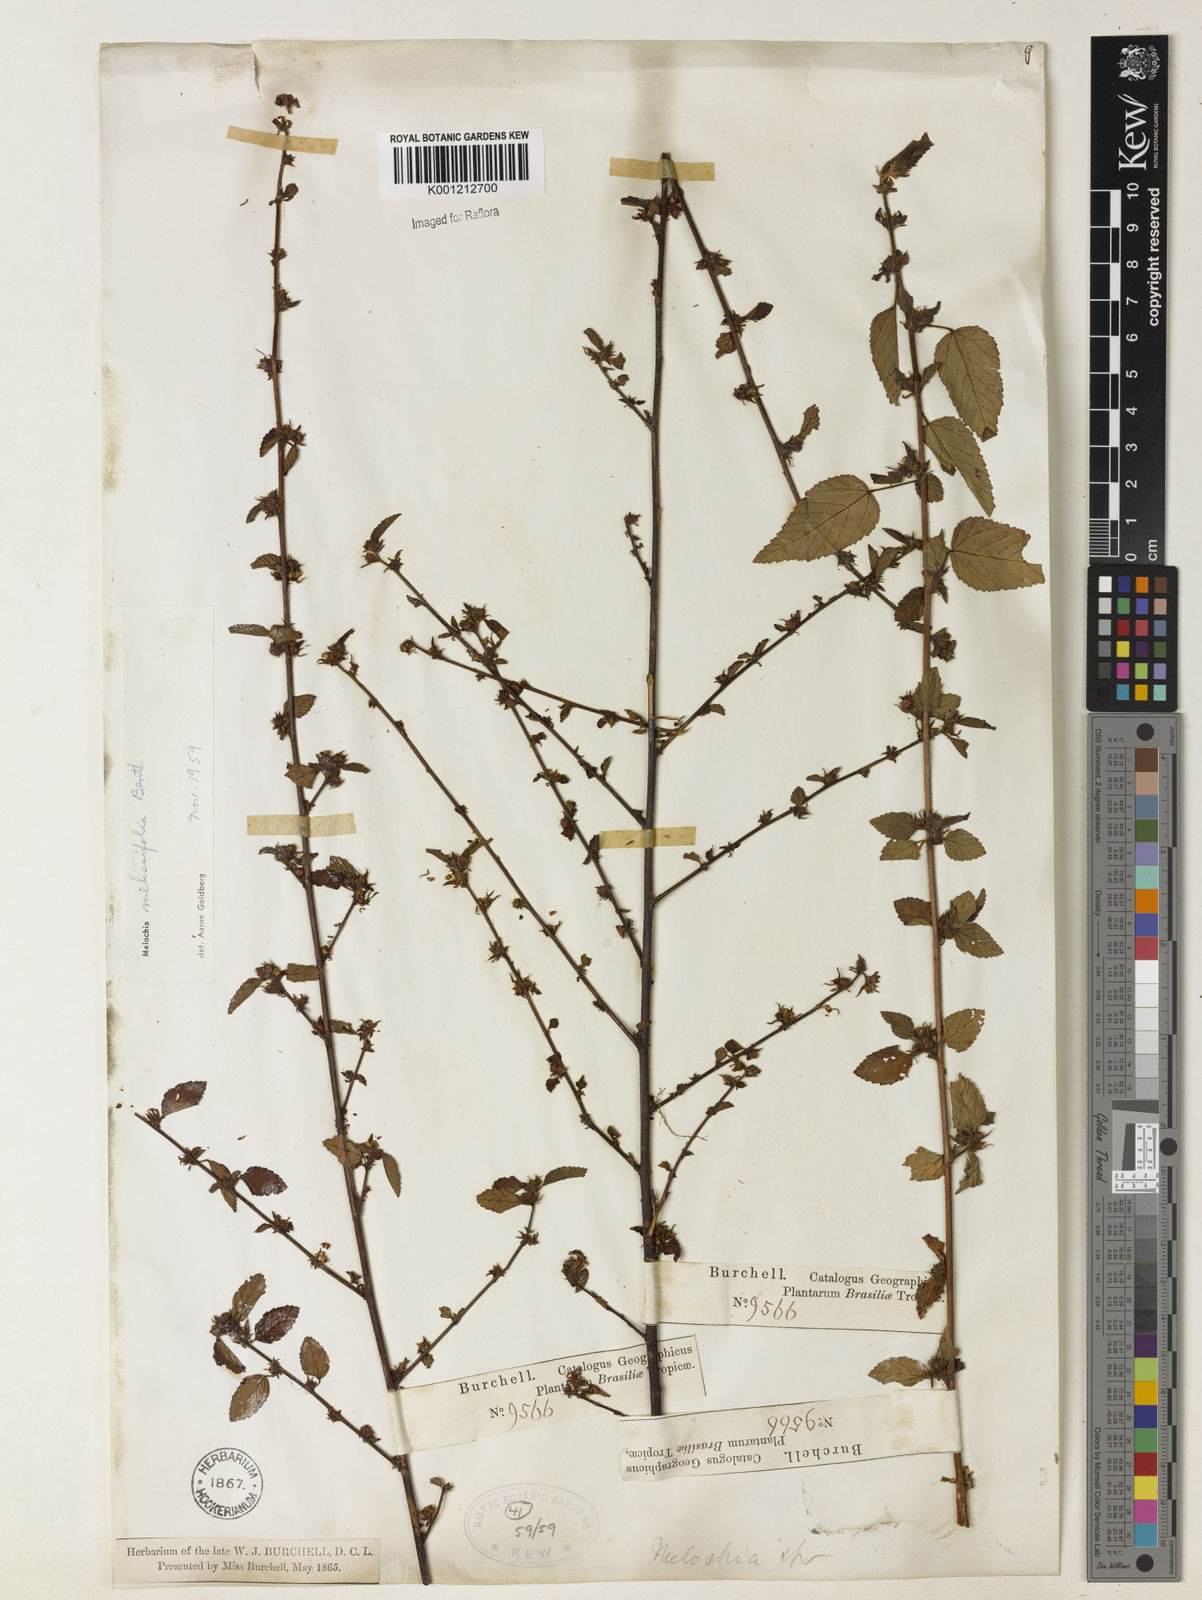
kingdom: Plantae
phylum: Tracheophyta
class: Magnoliopsida
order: Malvales
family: Malvaceae
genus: Melochia
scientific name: Melochia melissifolia
